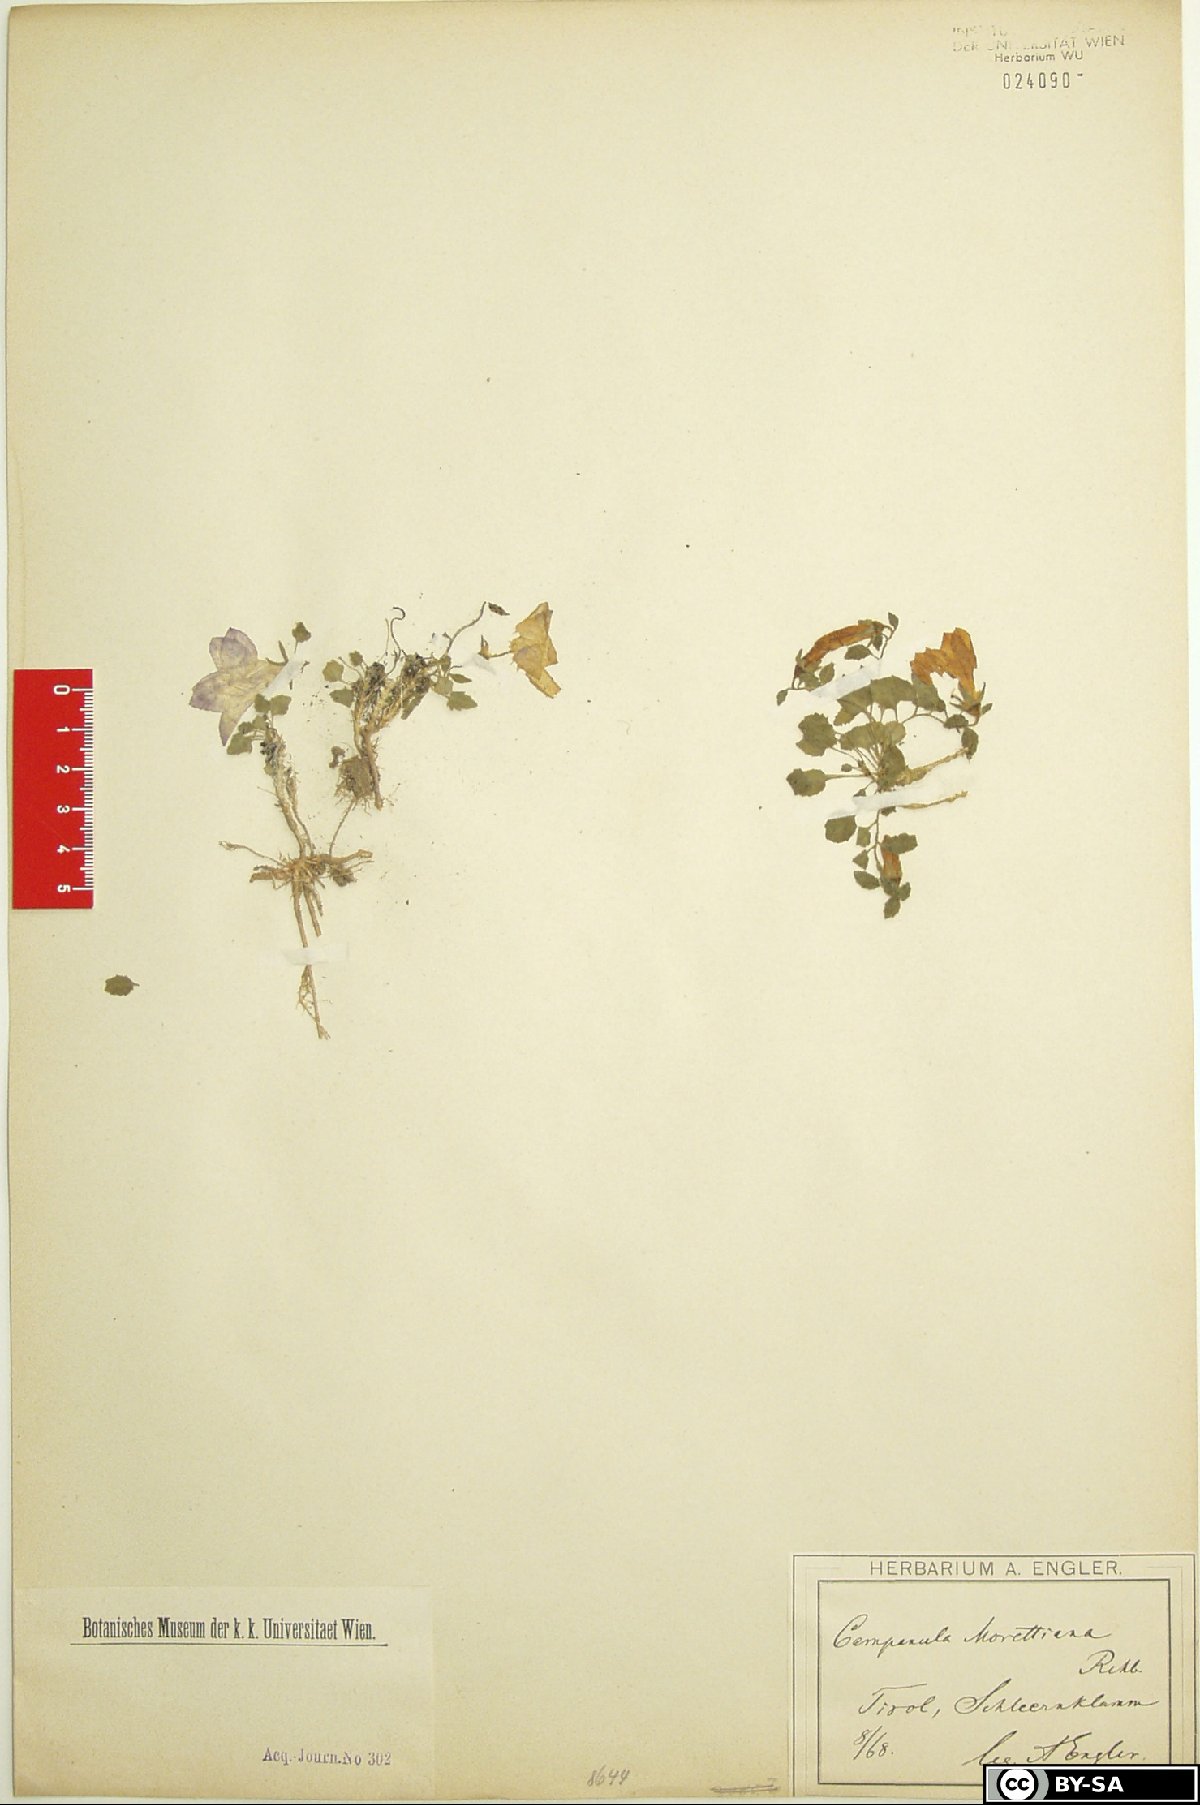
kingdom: Plantae
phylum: Tracheophyta
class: Magnoliopsida
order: Asterales
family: Campanulaceae
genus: Campanula
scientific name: Campanula morettiana
